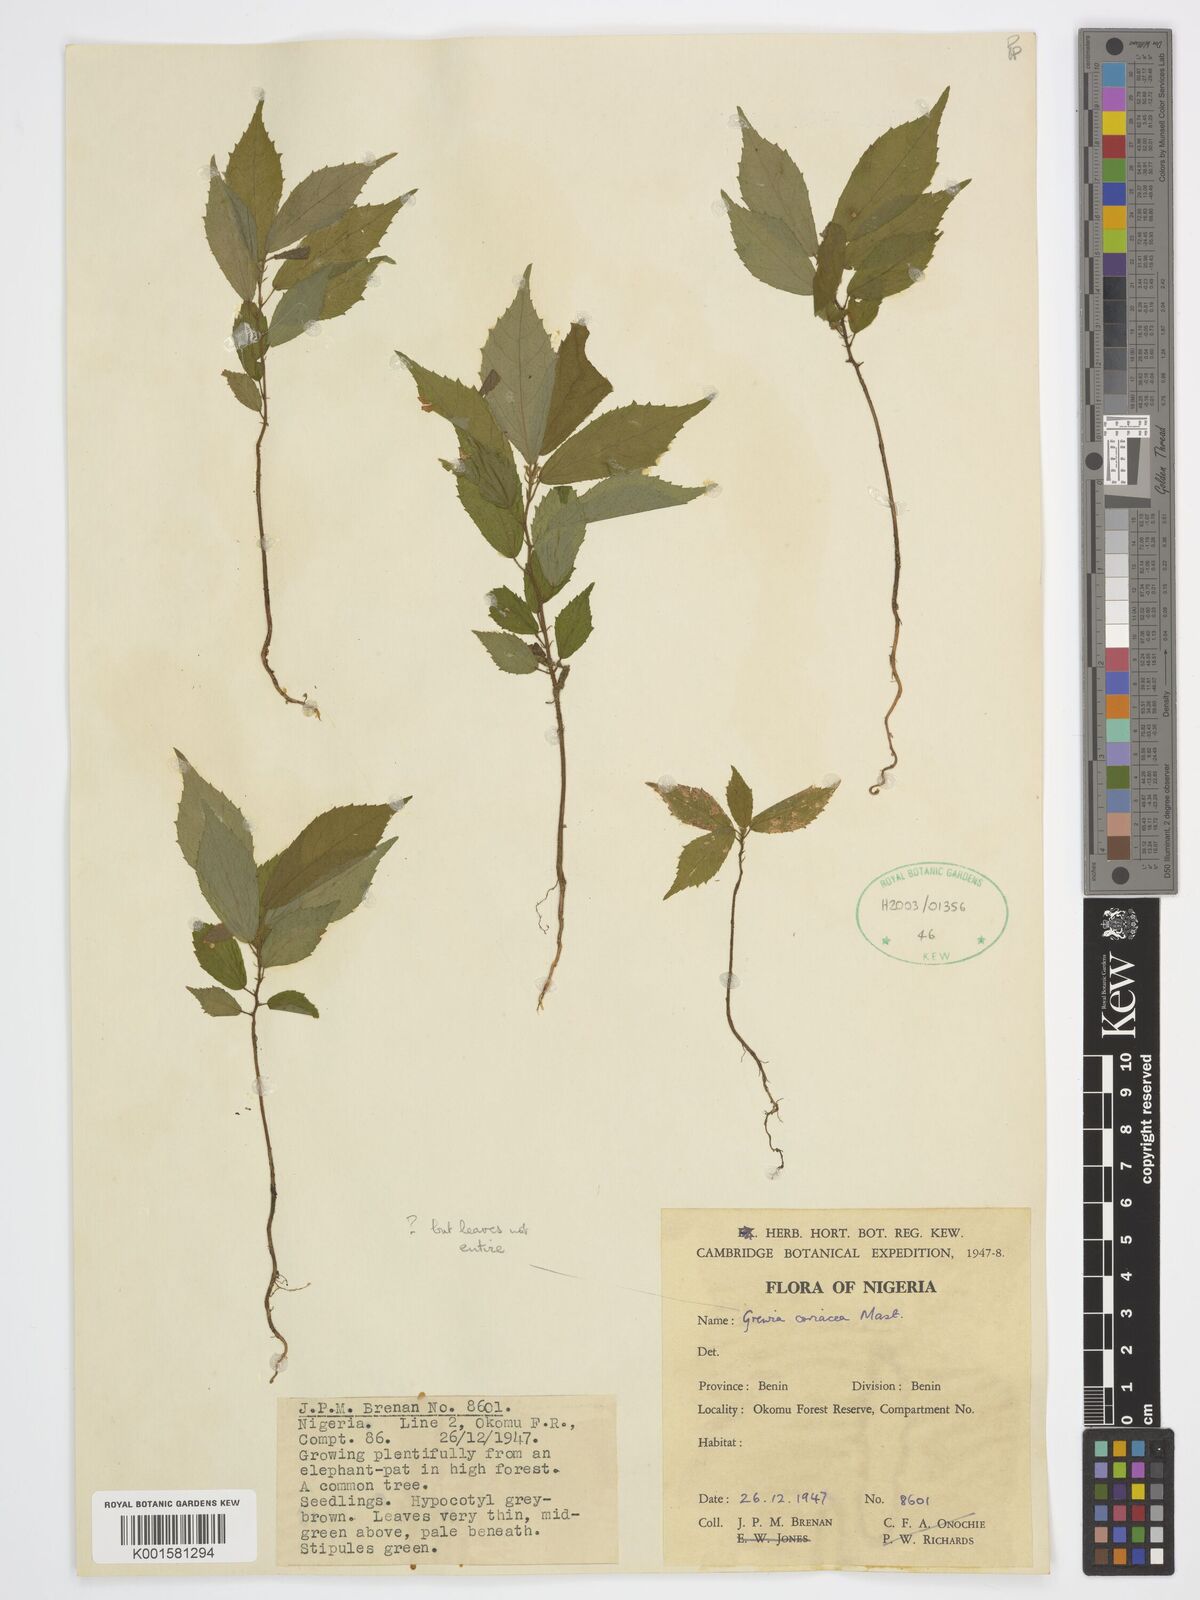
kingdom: Plantae
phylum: Tracheophyta
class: Magnoliopsida
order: Malvales
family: Malvaceae
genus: Microcos
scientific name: Microcos coriacea
